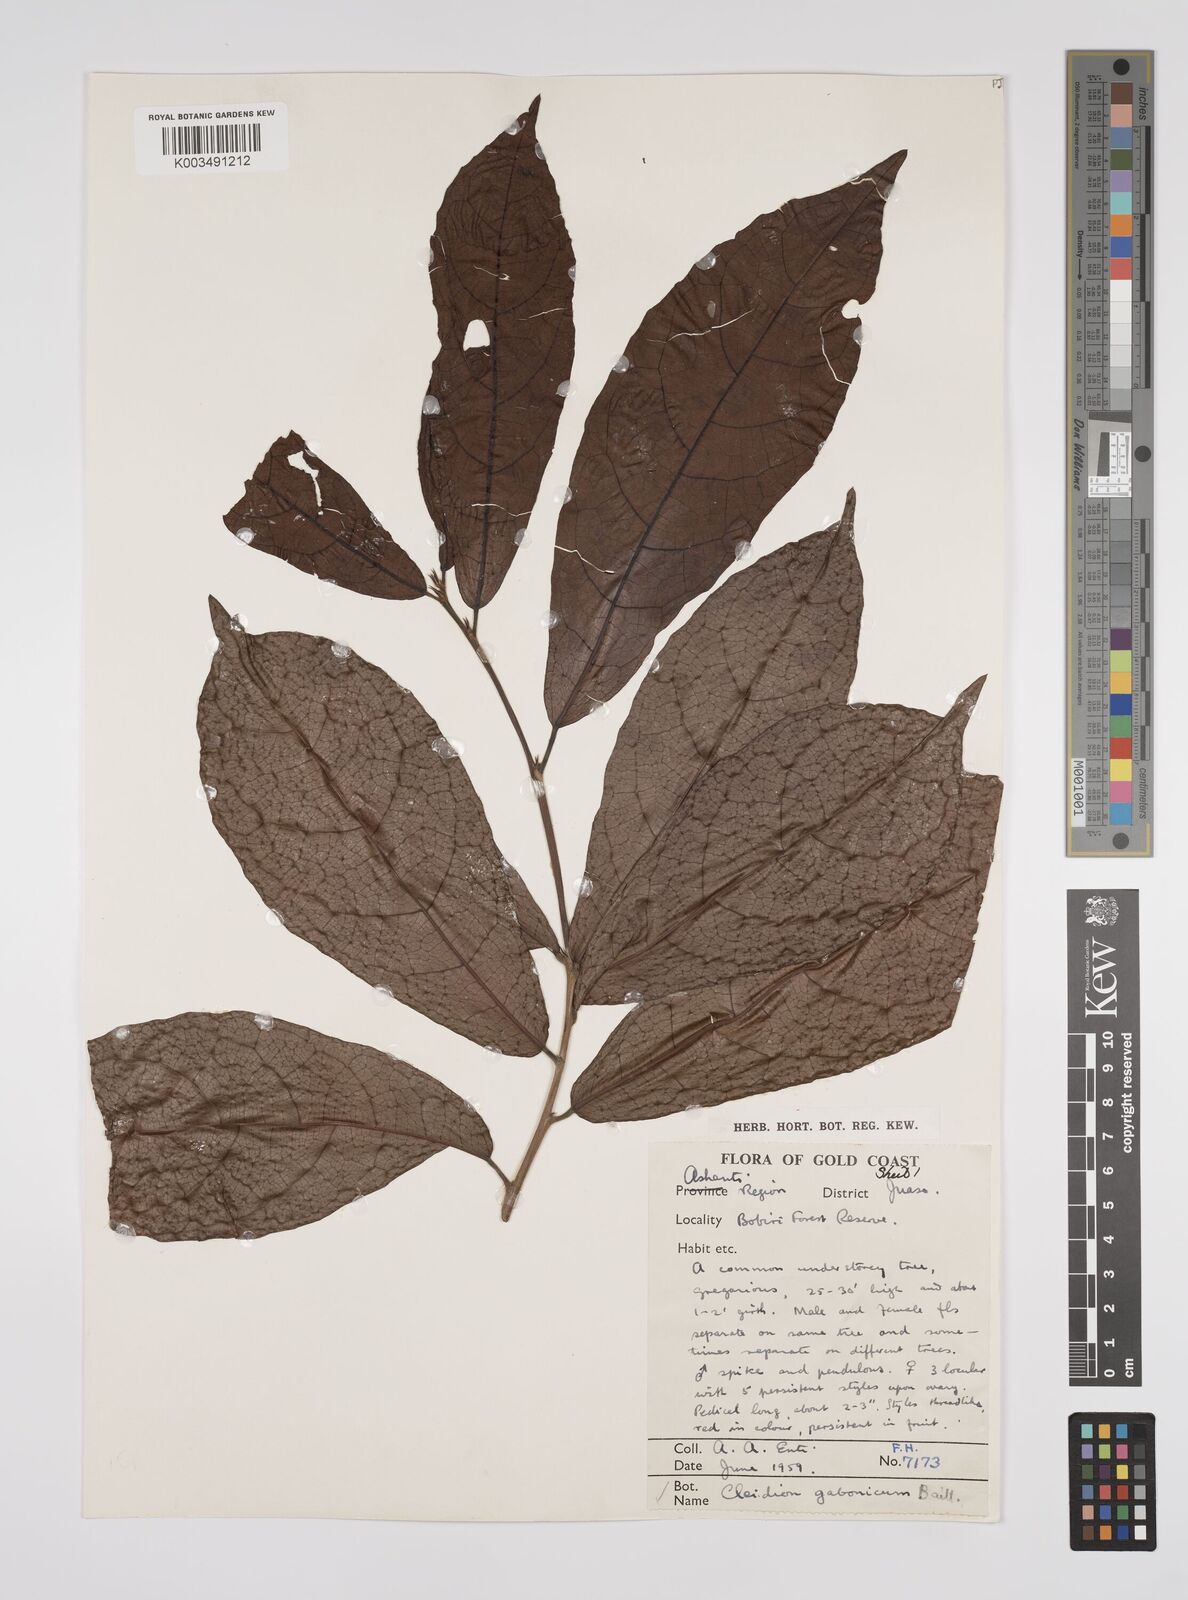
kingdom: Plantae
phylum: Tracheophyta
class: Magnoliopsida
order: Malpighiales
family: Euphorbiaceae
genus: Cleidion
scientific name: Cleidion gabonicum
